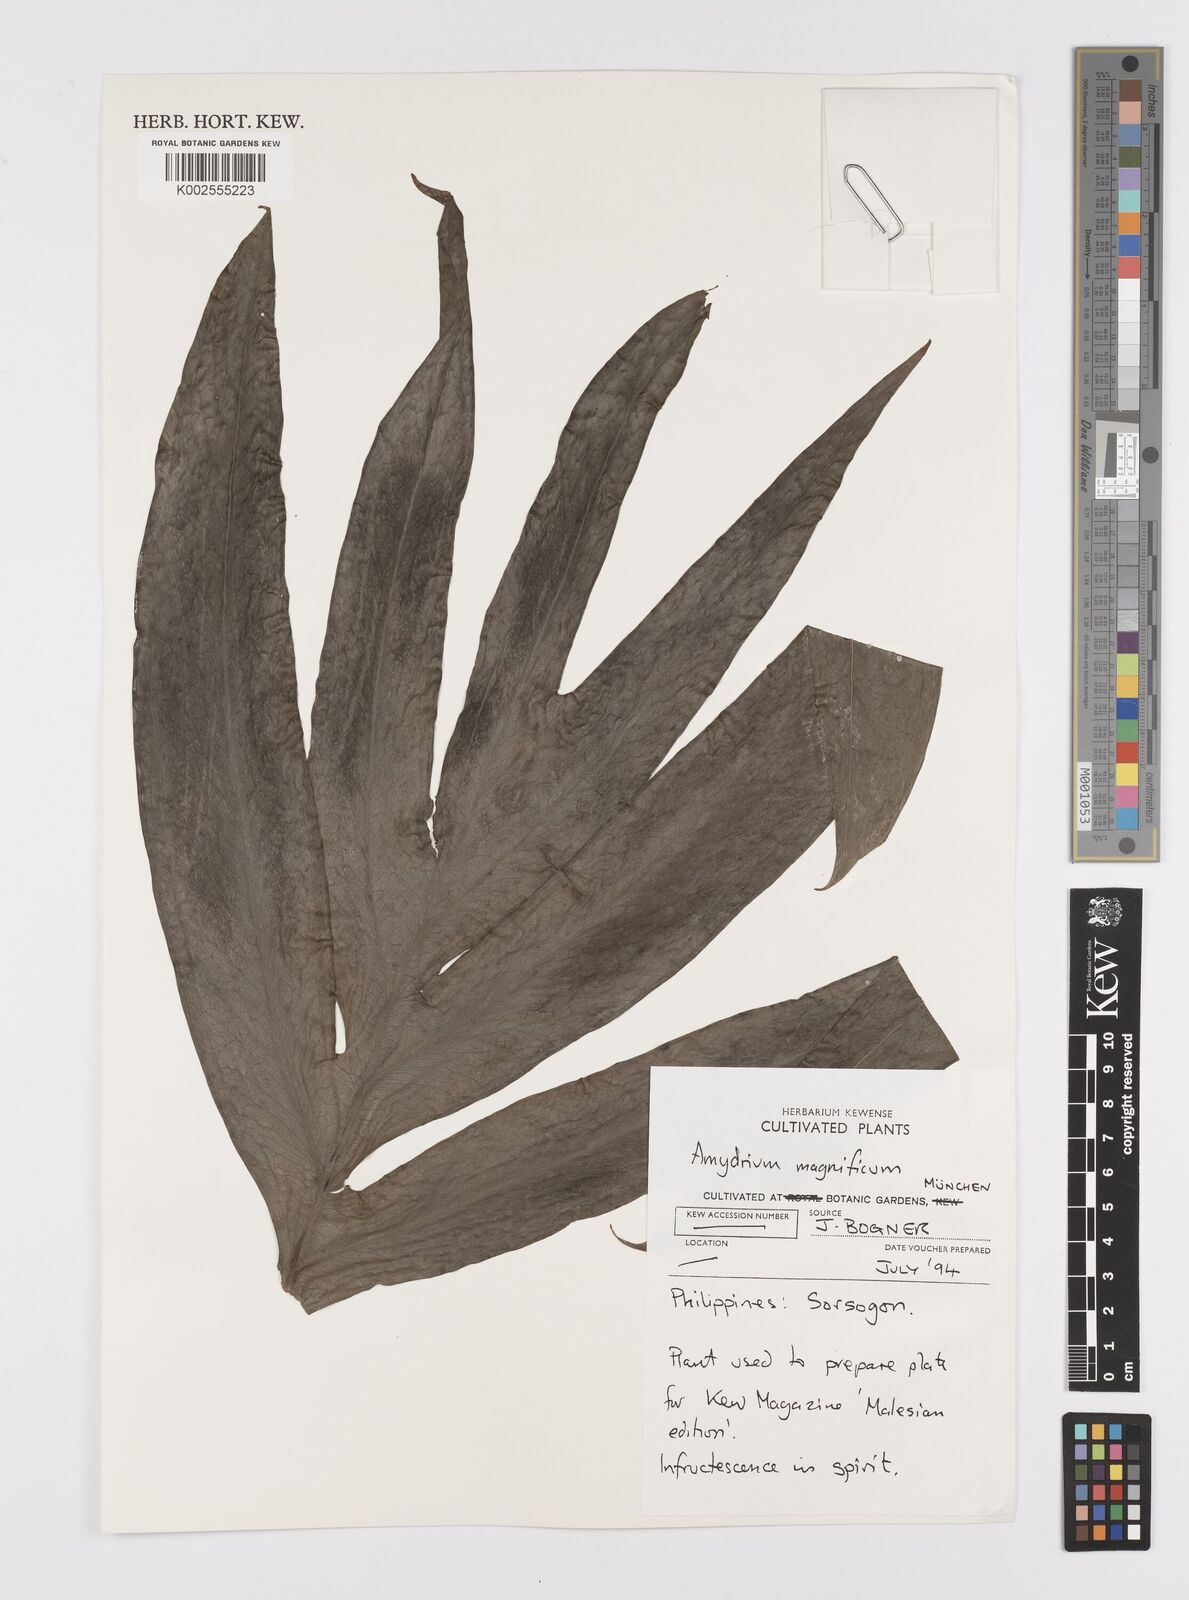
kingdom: Plantae
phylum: Tracheophyta
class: Liliopsida
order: Alismatales
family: Araceae
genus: Amydrium
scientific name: Amydrium zippelianum
